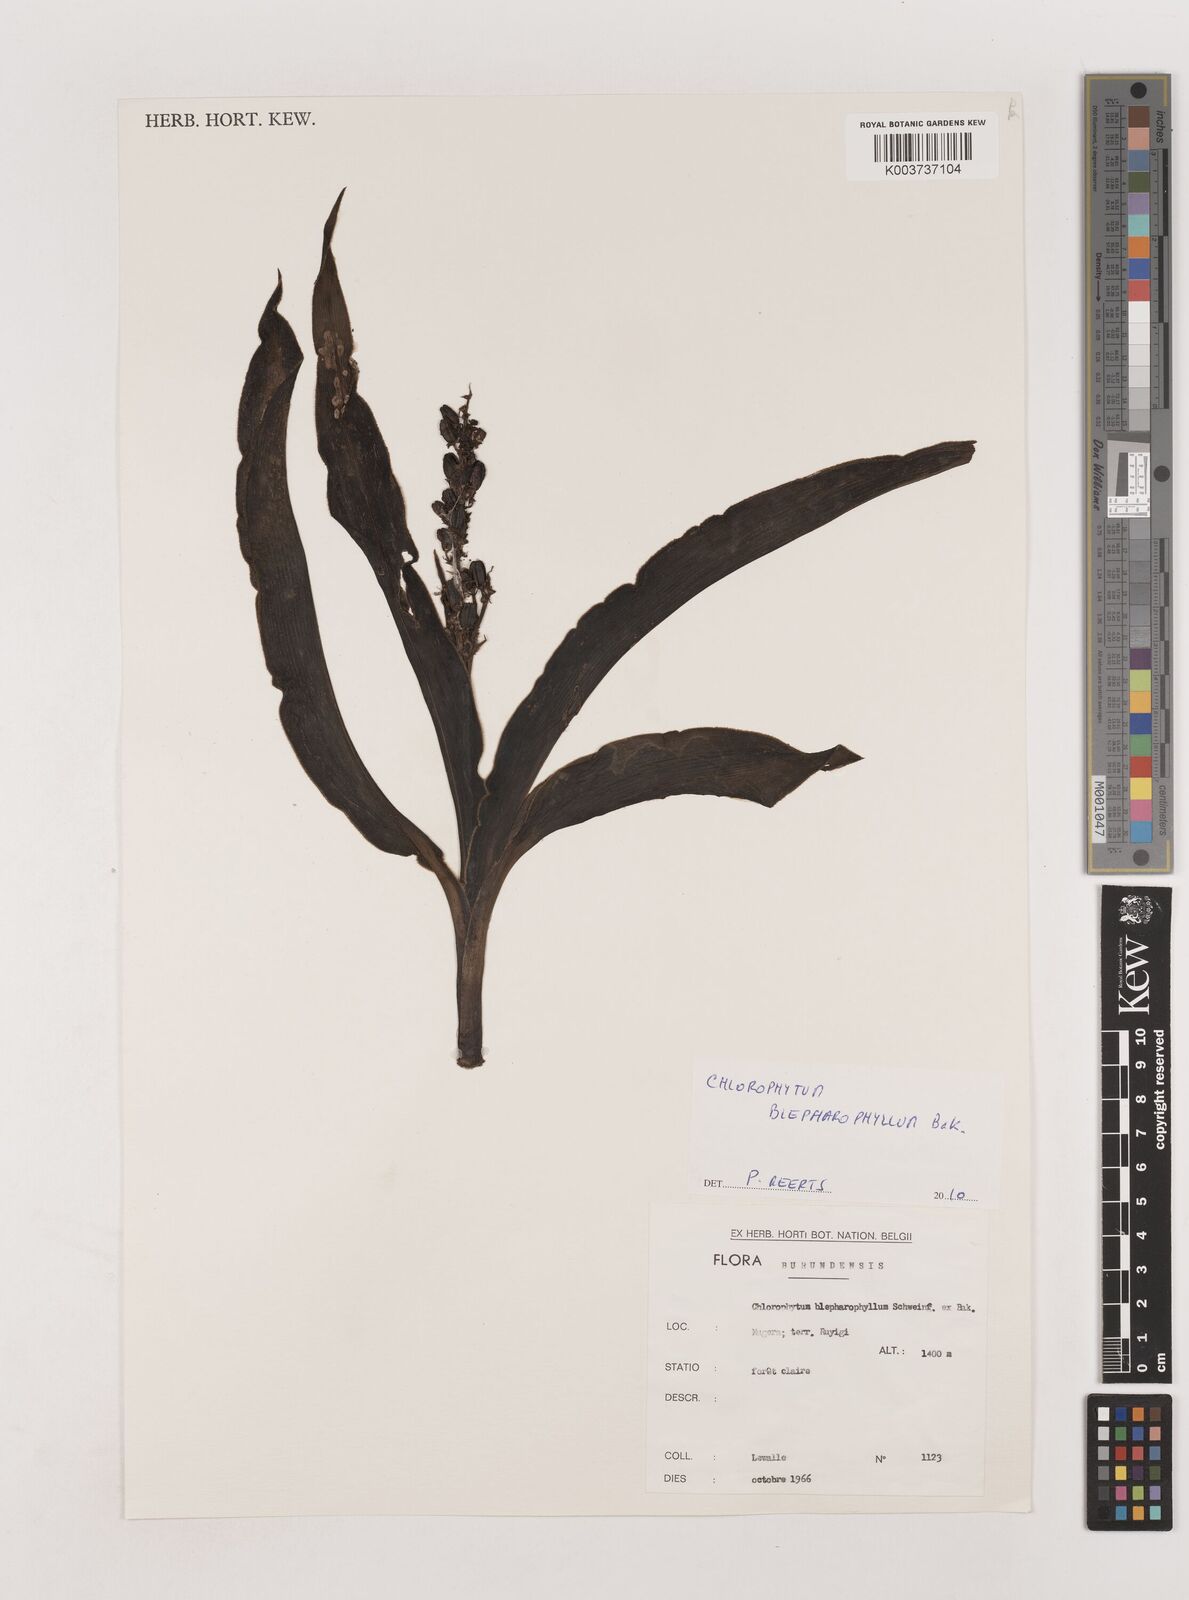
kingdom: Plantae
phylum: Tracheophyta
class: Liliopsida
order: Asparagales
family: Asparagaceae
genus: Chlorophytum
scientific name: Chlorophytum blepharophyllum
